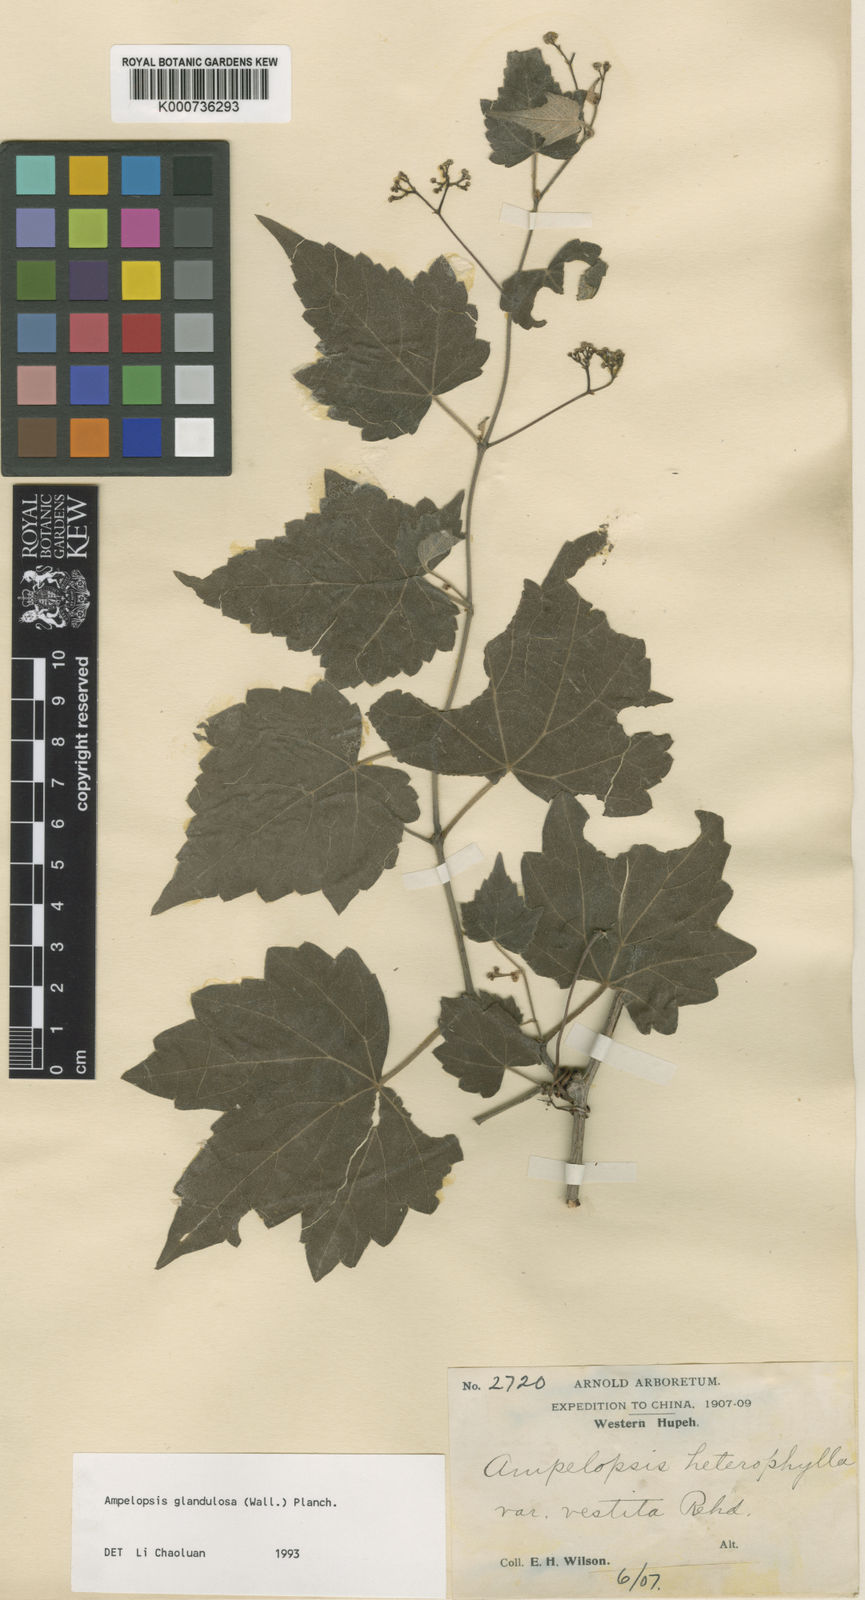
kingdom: Plantae
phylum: Tracheophyta
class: Magnoliopsida
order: Vitales
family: Vitaceae
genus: Ampelopsis
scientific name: Ampelopsis glandulosa
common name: Amur peppervine
